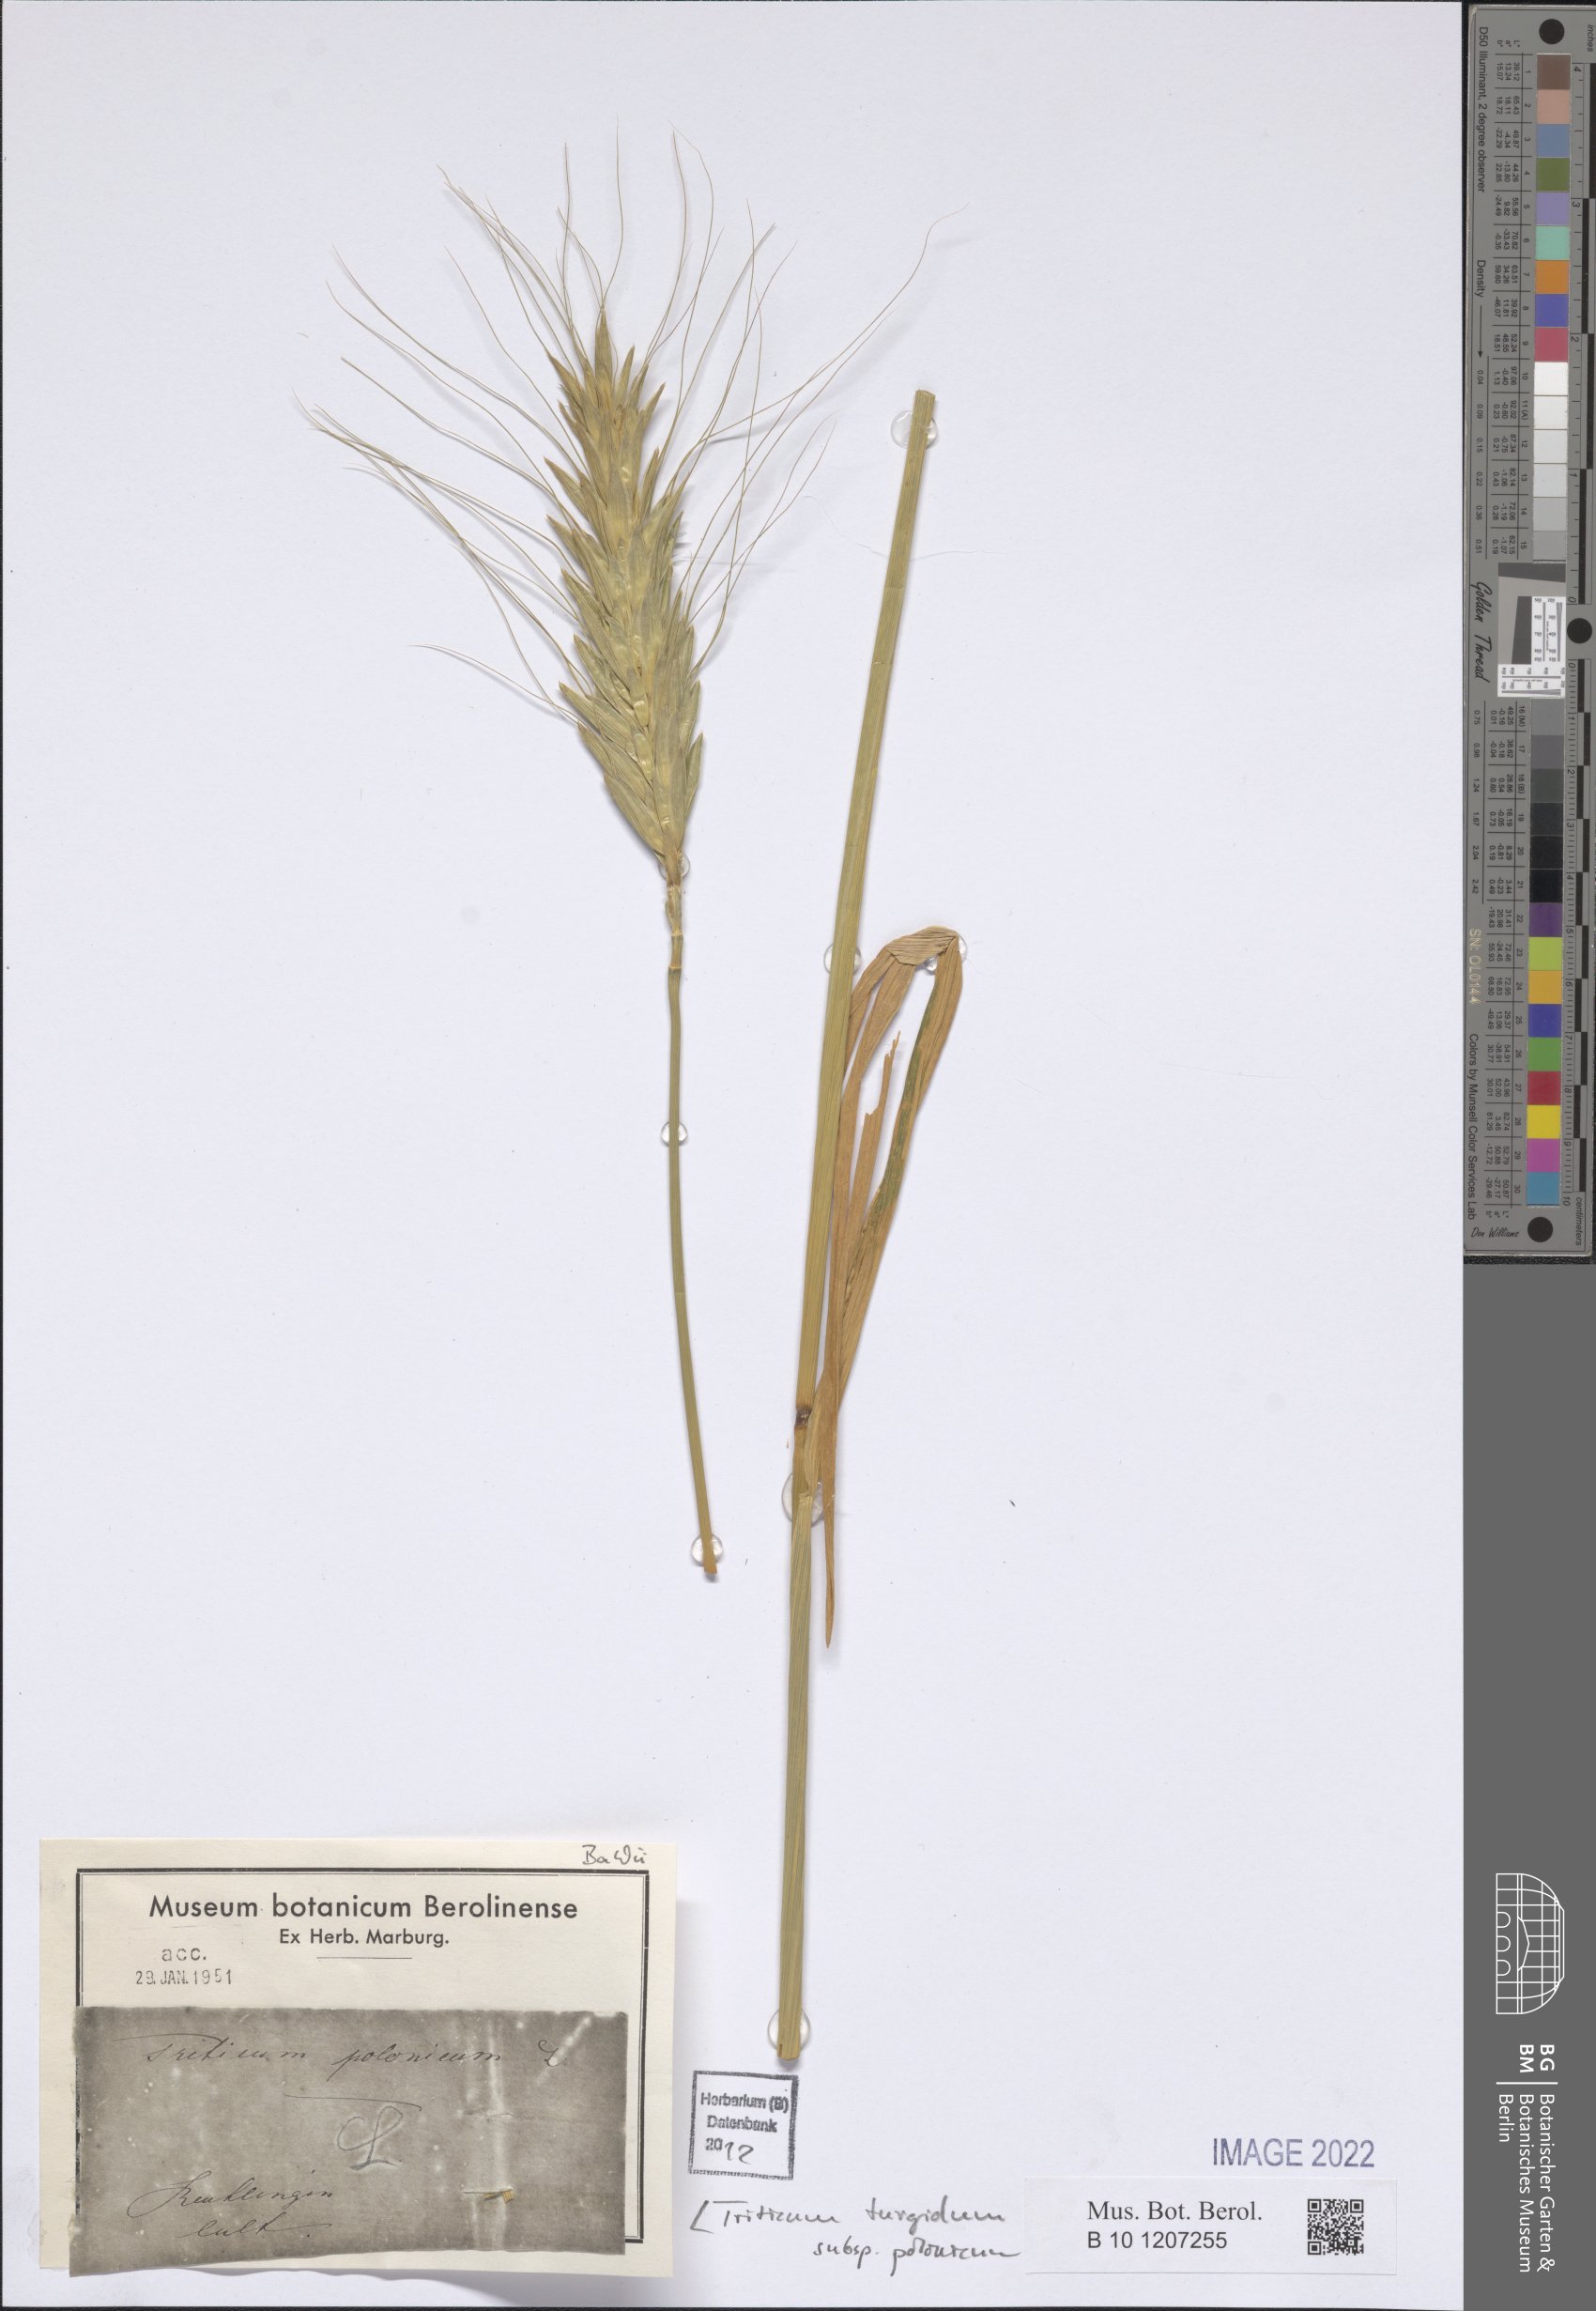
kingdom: Plantae
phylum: Tracheophyta
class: Liliopsida
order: Poales
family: Poaceae
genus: Triticum
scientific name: Triticum turgidum
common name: Rivet wheat
